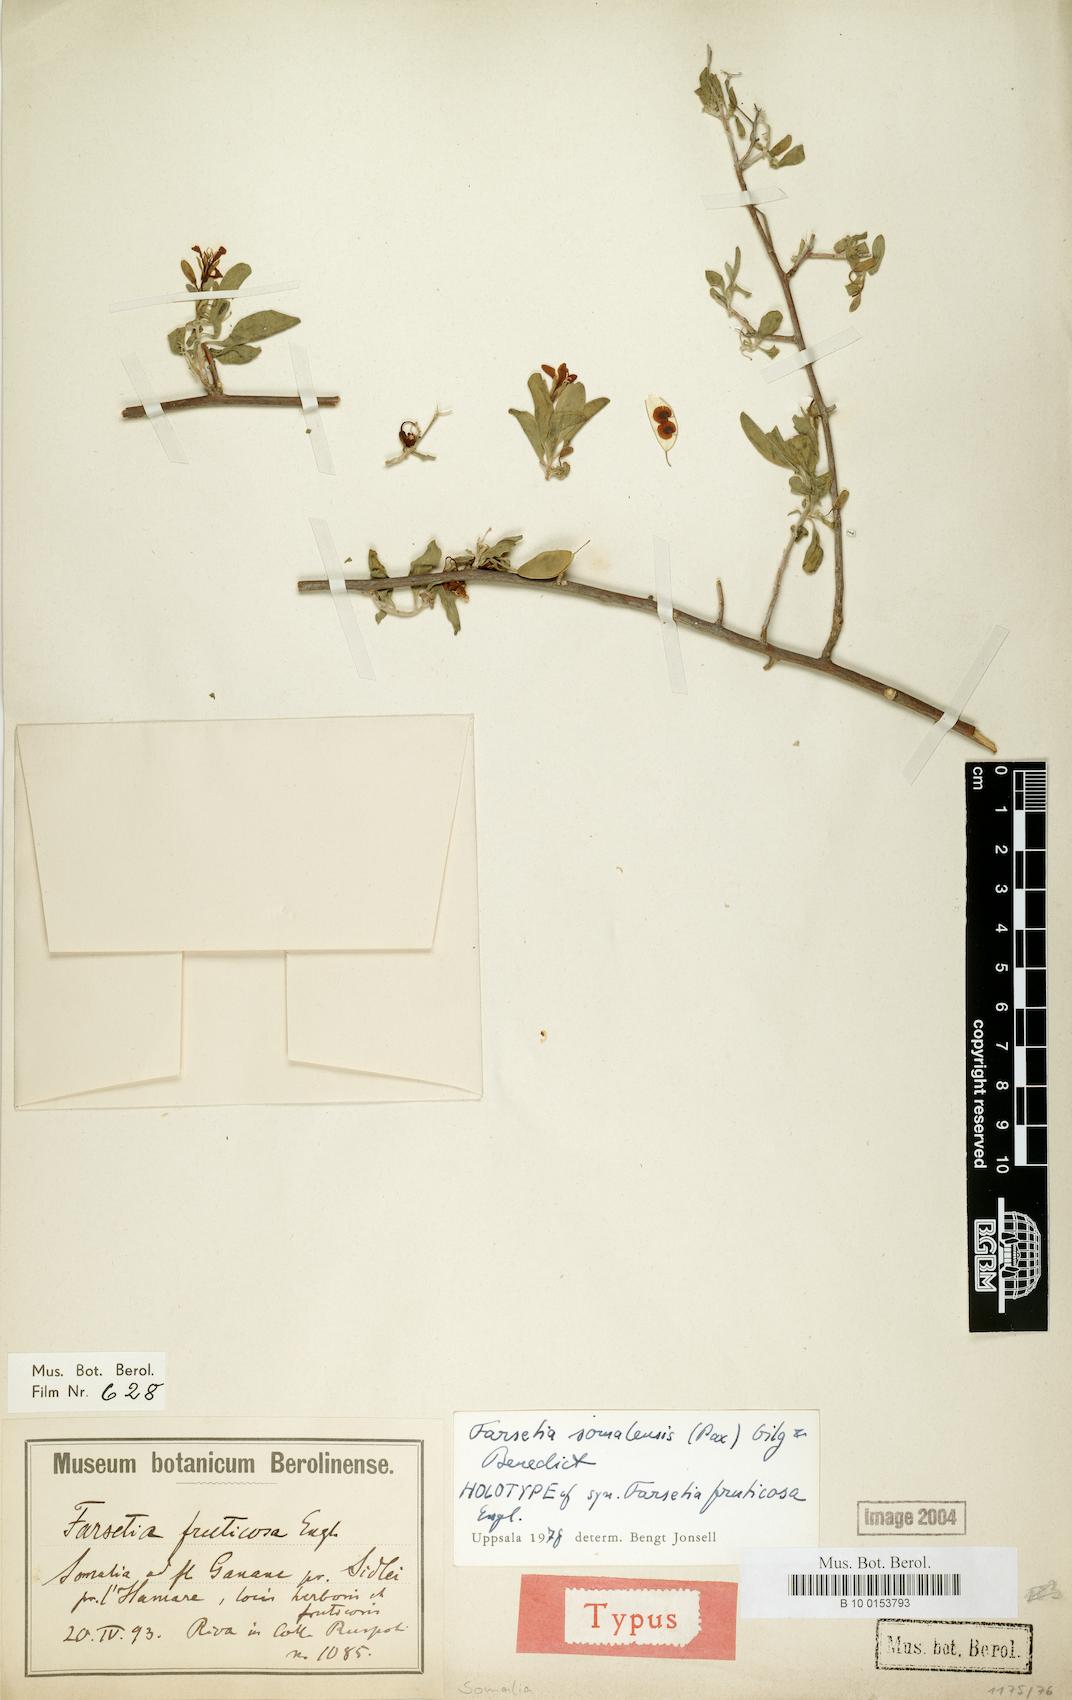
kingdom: Plantae
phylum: Tracheophyta
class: Magnoliopsida
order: Brassicales
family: Brassicaceae
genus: Farsetia
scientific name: Farsetia somalensis
